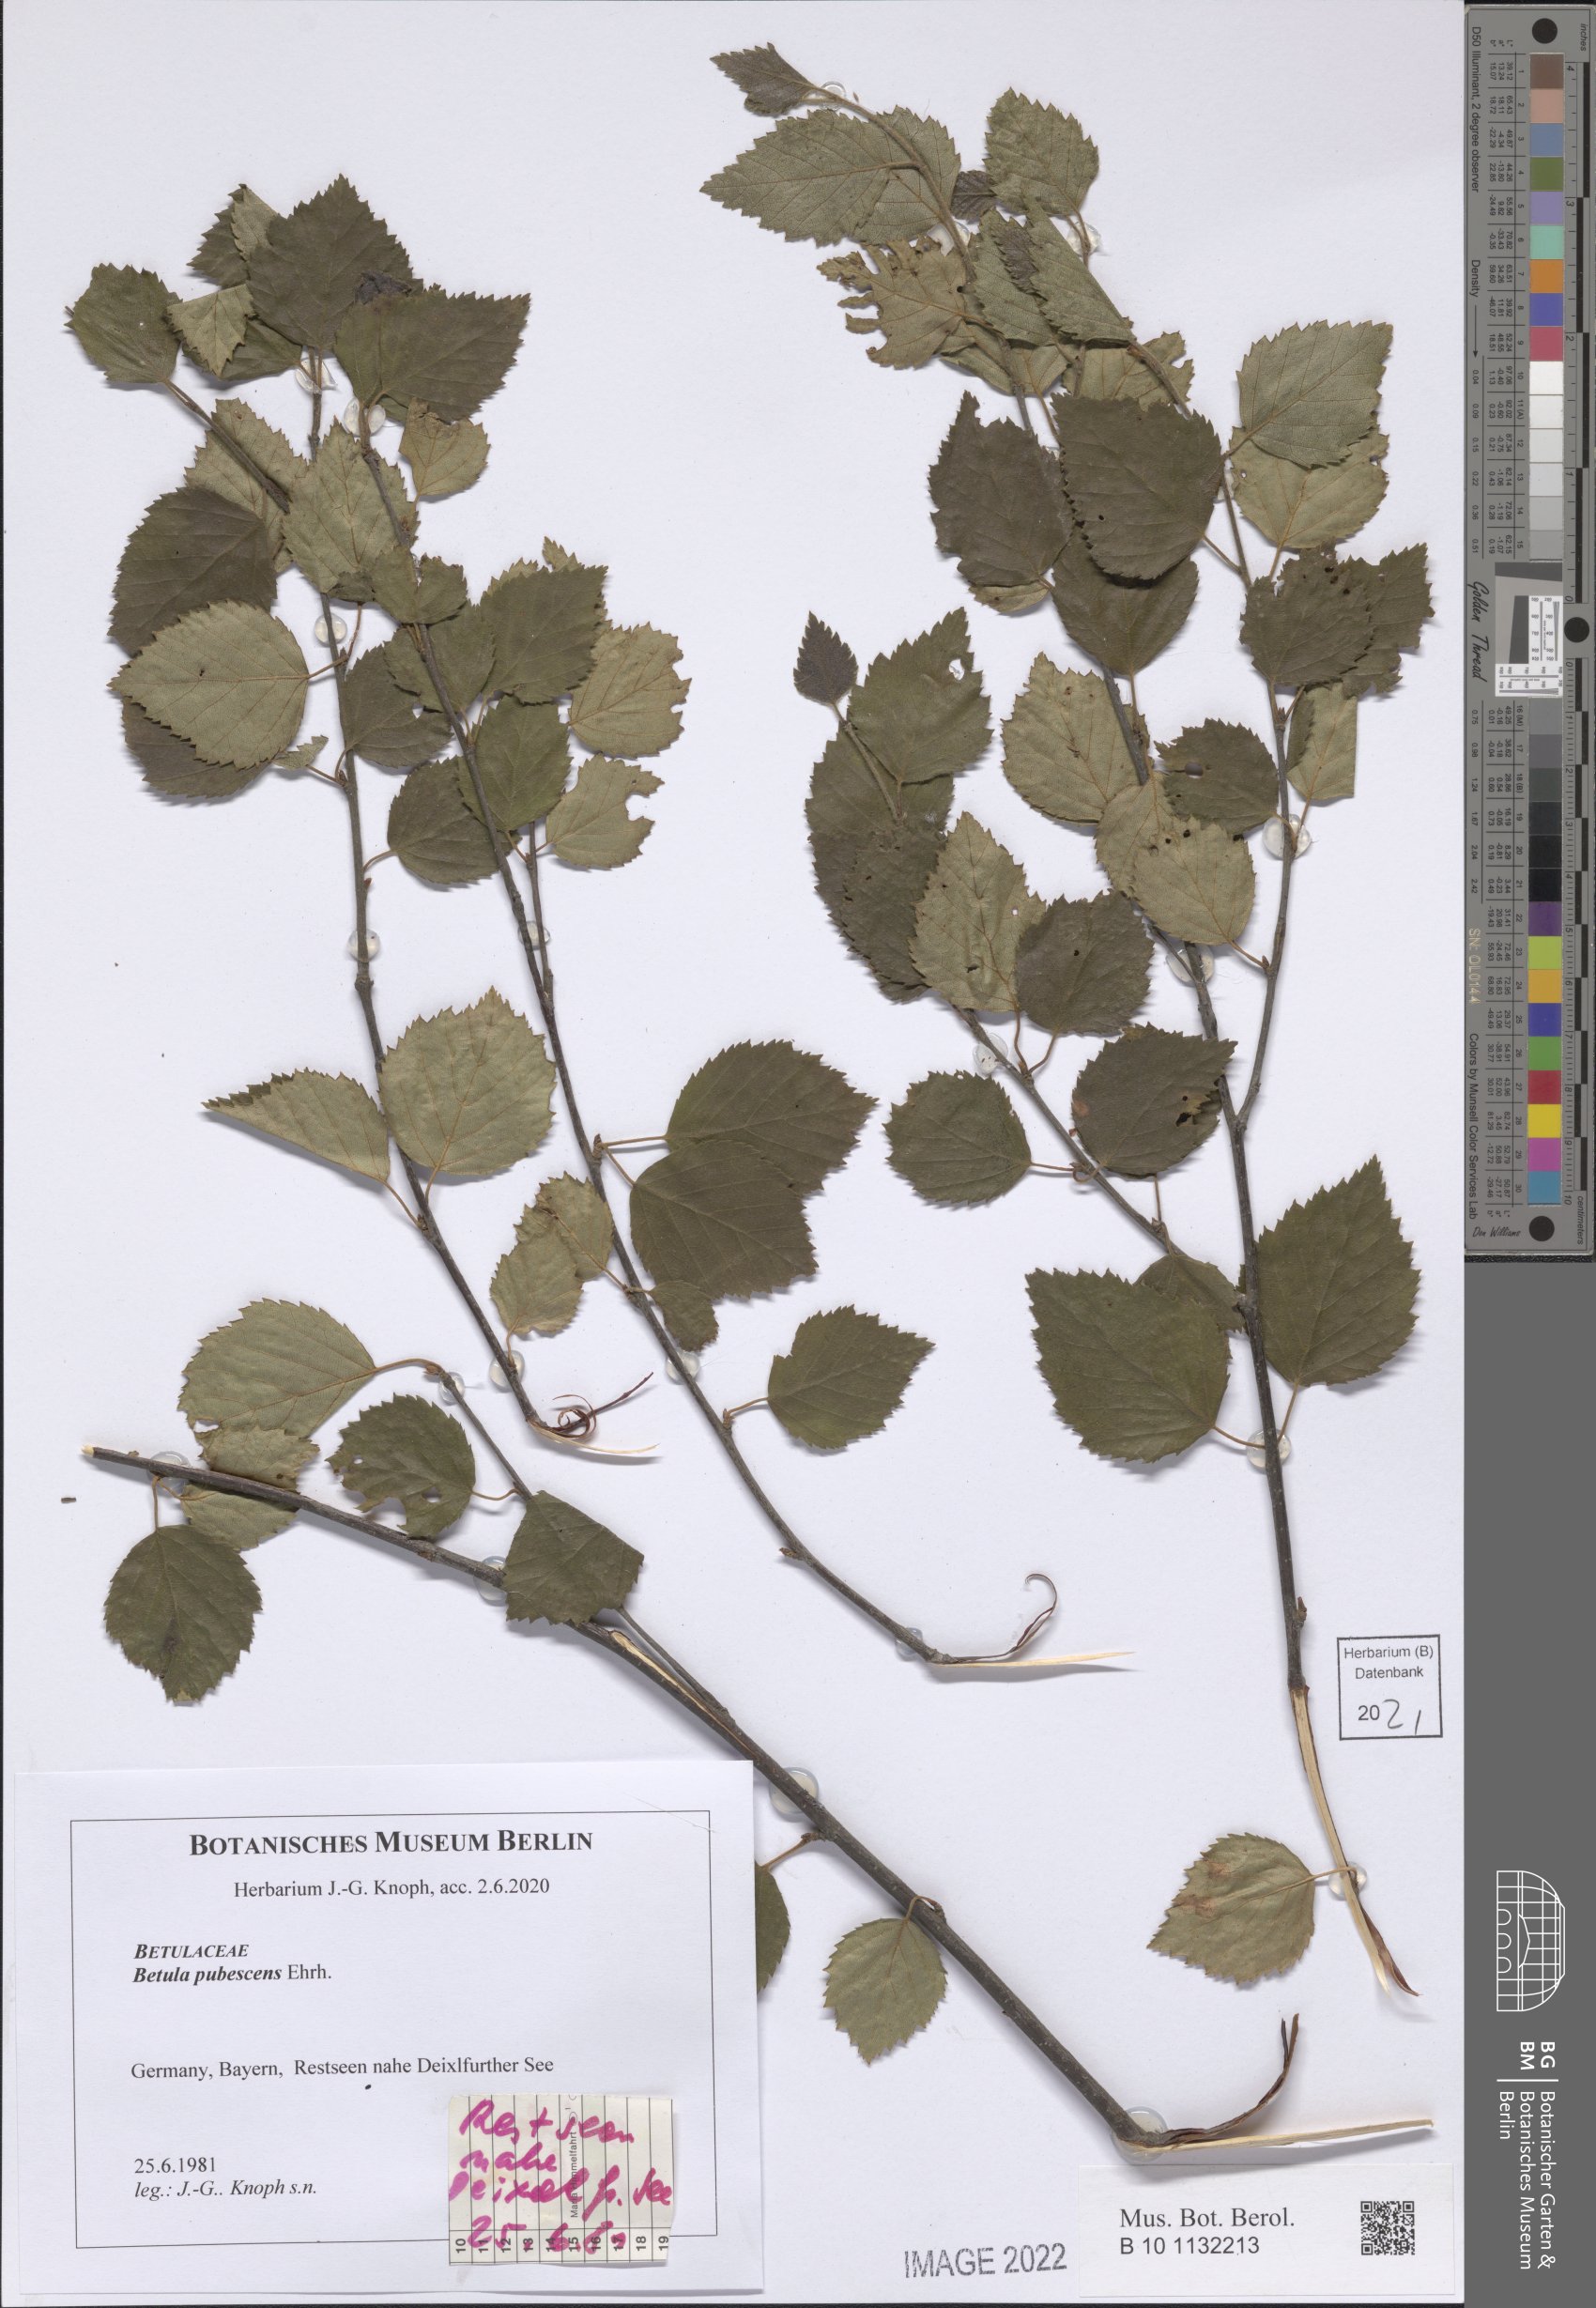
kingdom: Plantae
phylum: Tracheophyta
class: Magnoliopsida
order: Fagales
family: Betulaceae
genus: Betula
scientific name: Betula pubescens
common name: Downy birch
